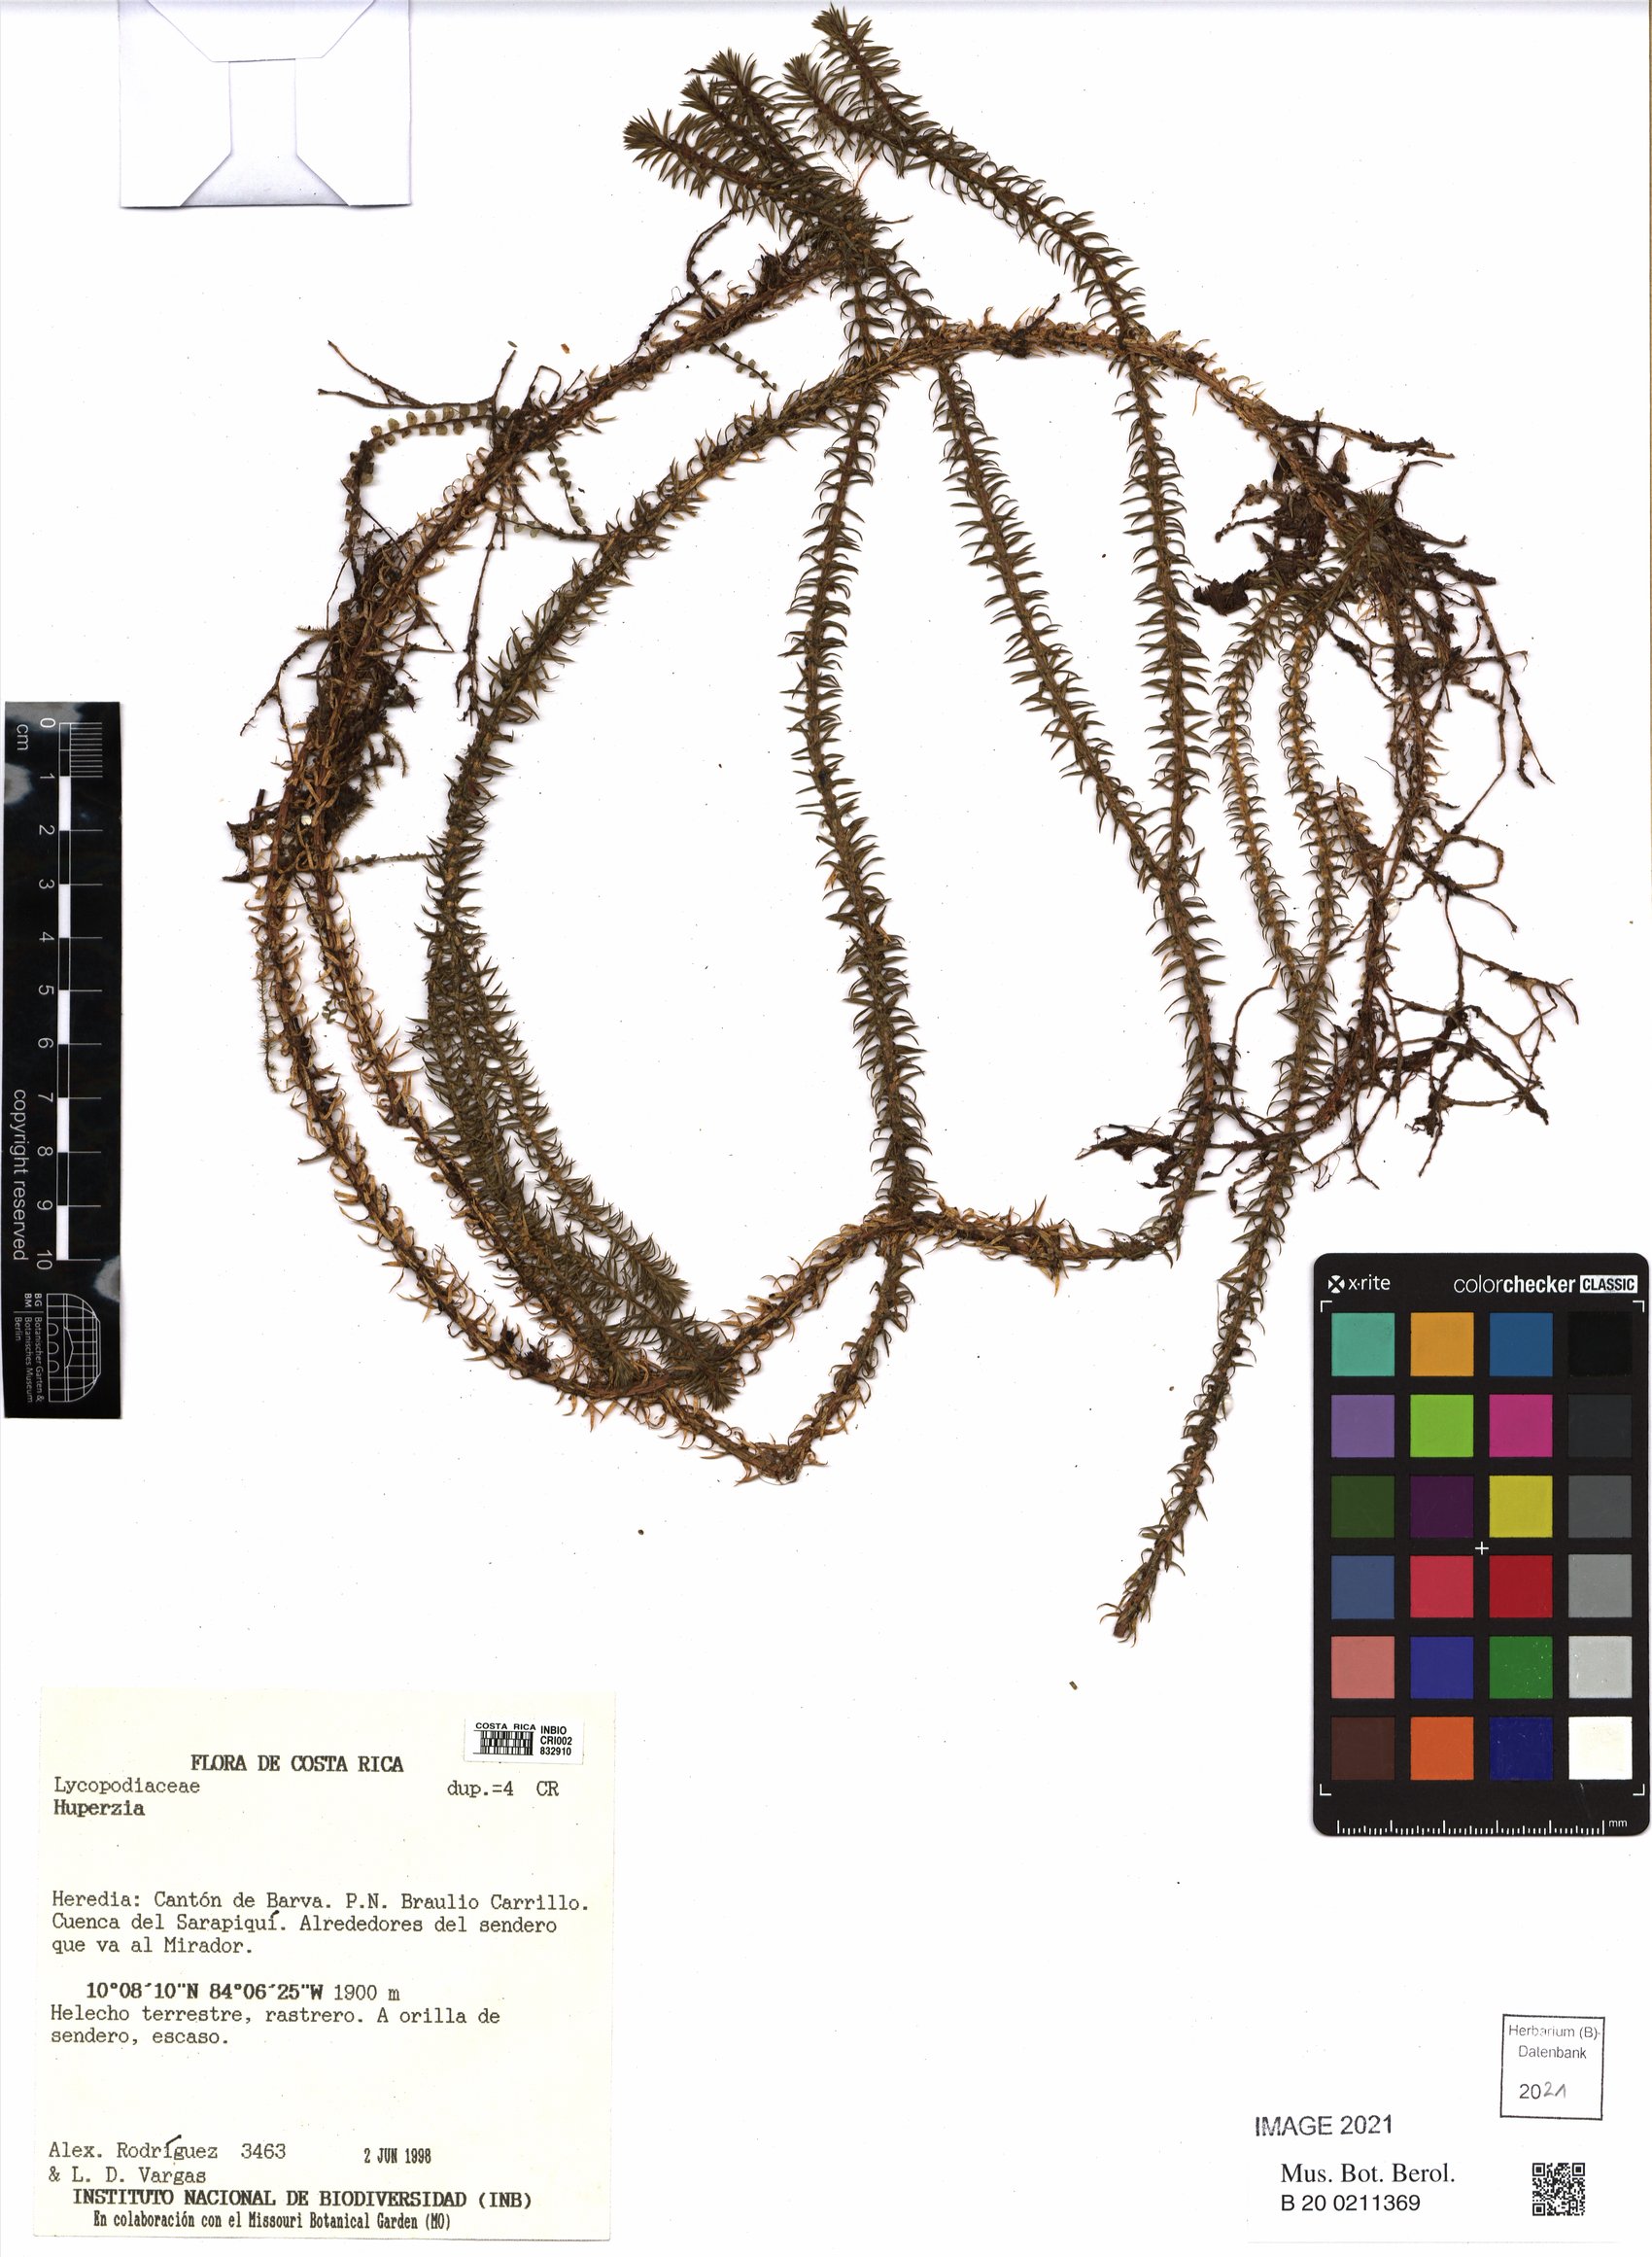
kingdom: Plantae
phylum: Tracheophyta
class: Lycopodiopsida
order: Lycopodiales
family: Lycopodiaceae
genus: Huperzia
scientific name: Huperzia
